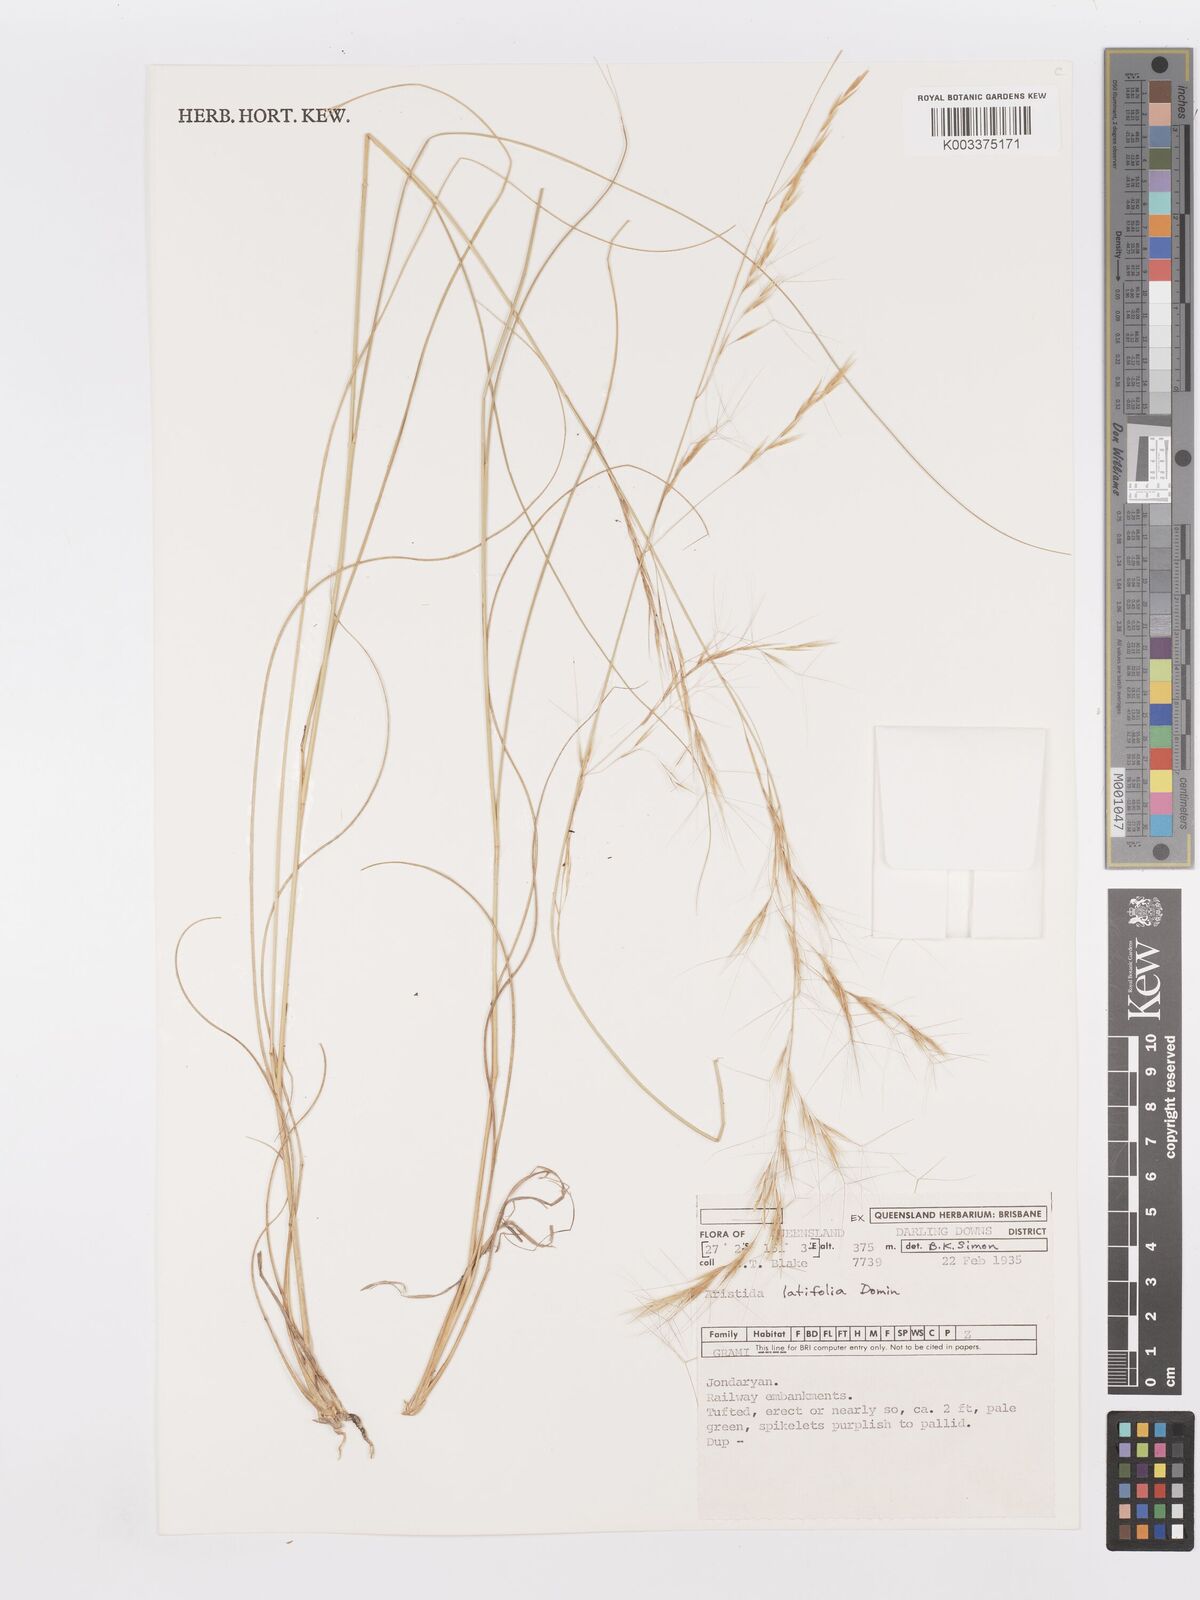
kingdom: Plantae
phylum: Tracheophyta
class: Liliopsida
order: Poales
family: Poaceae
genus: Aristida
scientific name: Aristida latifolia
